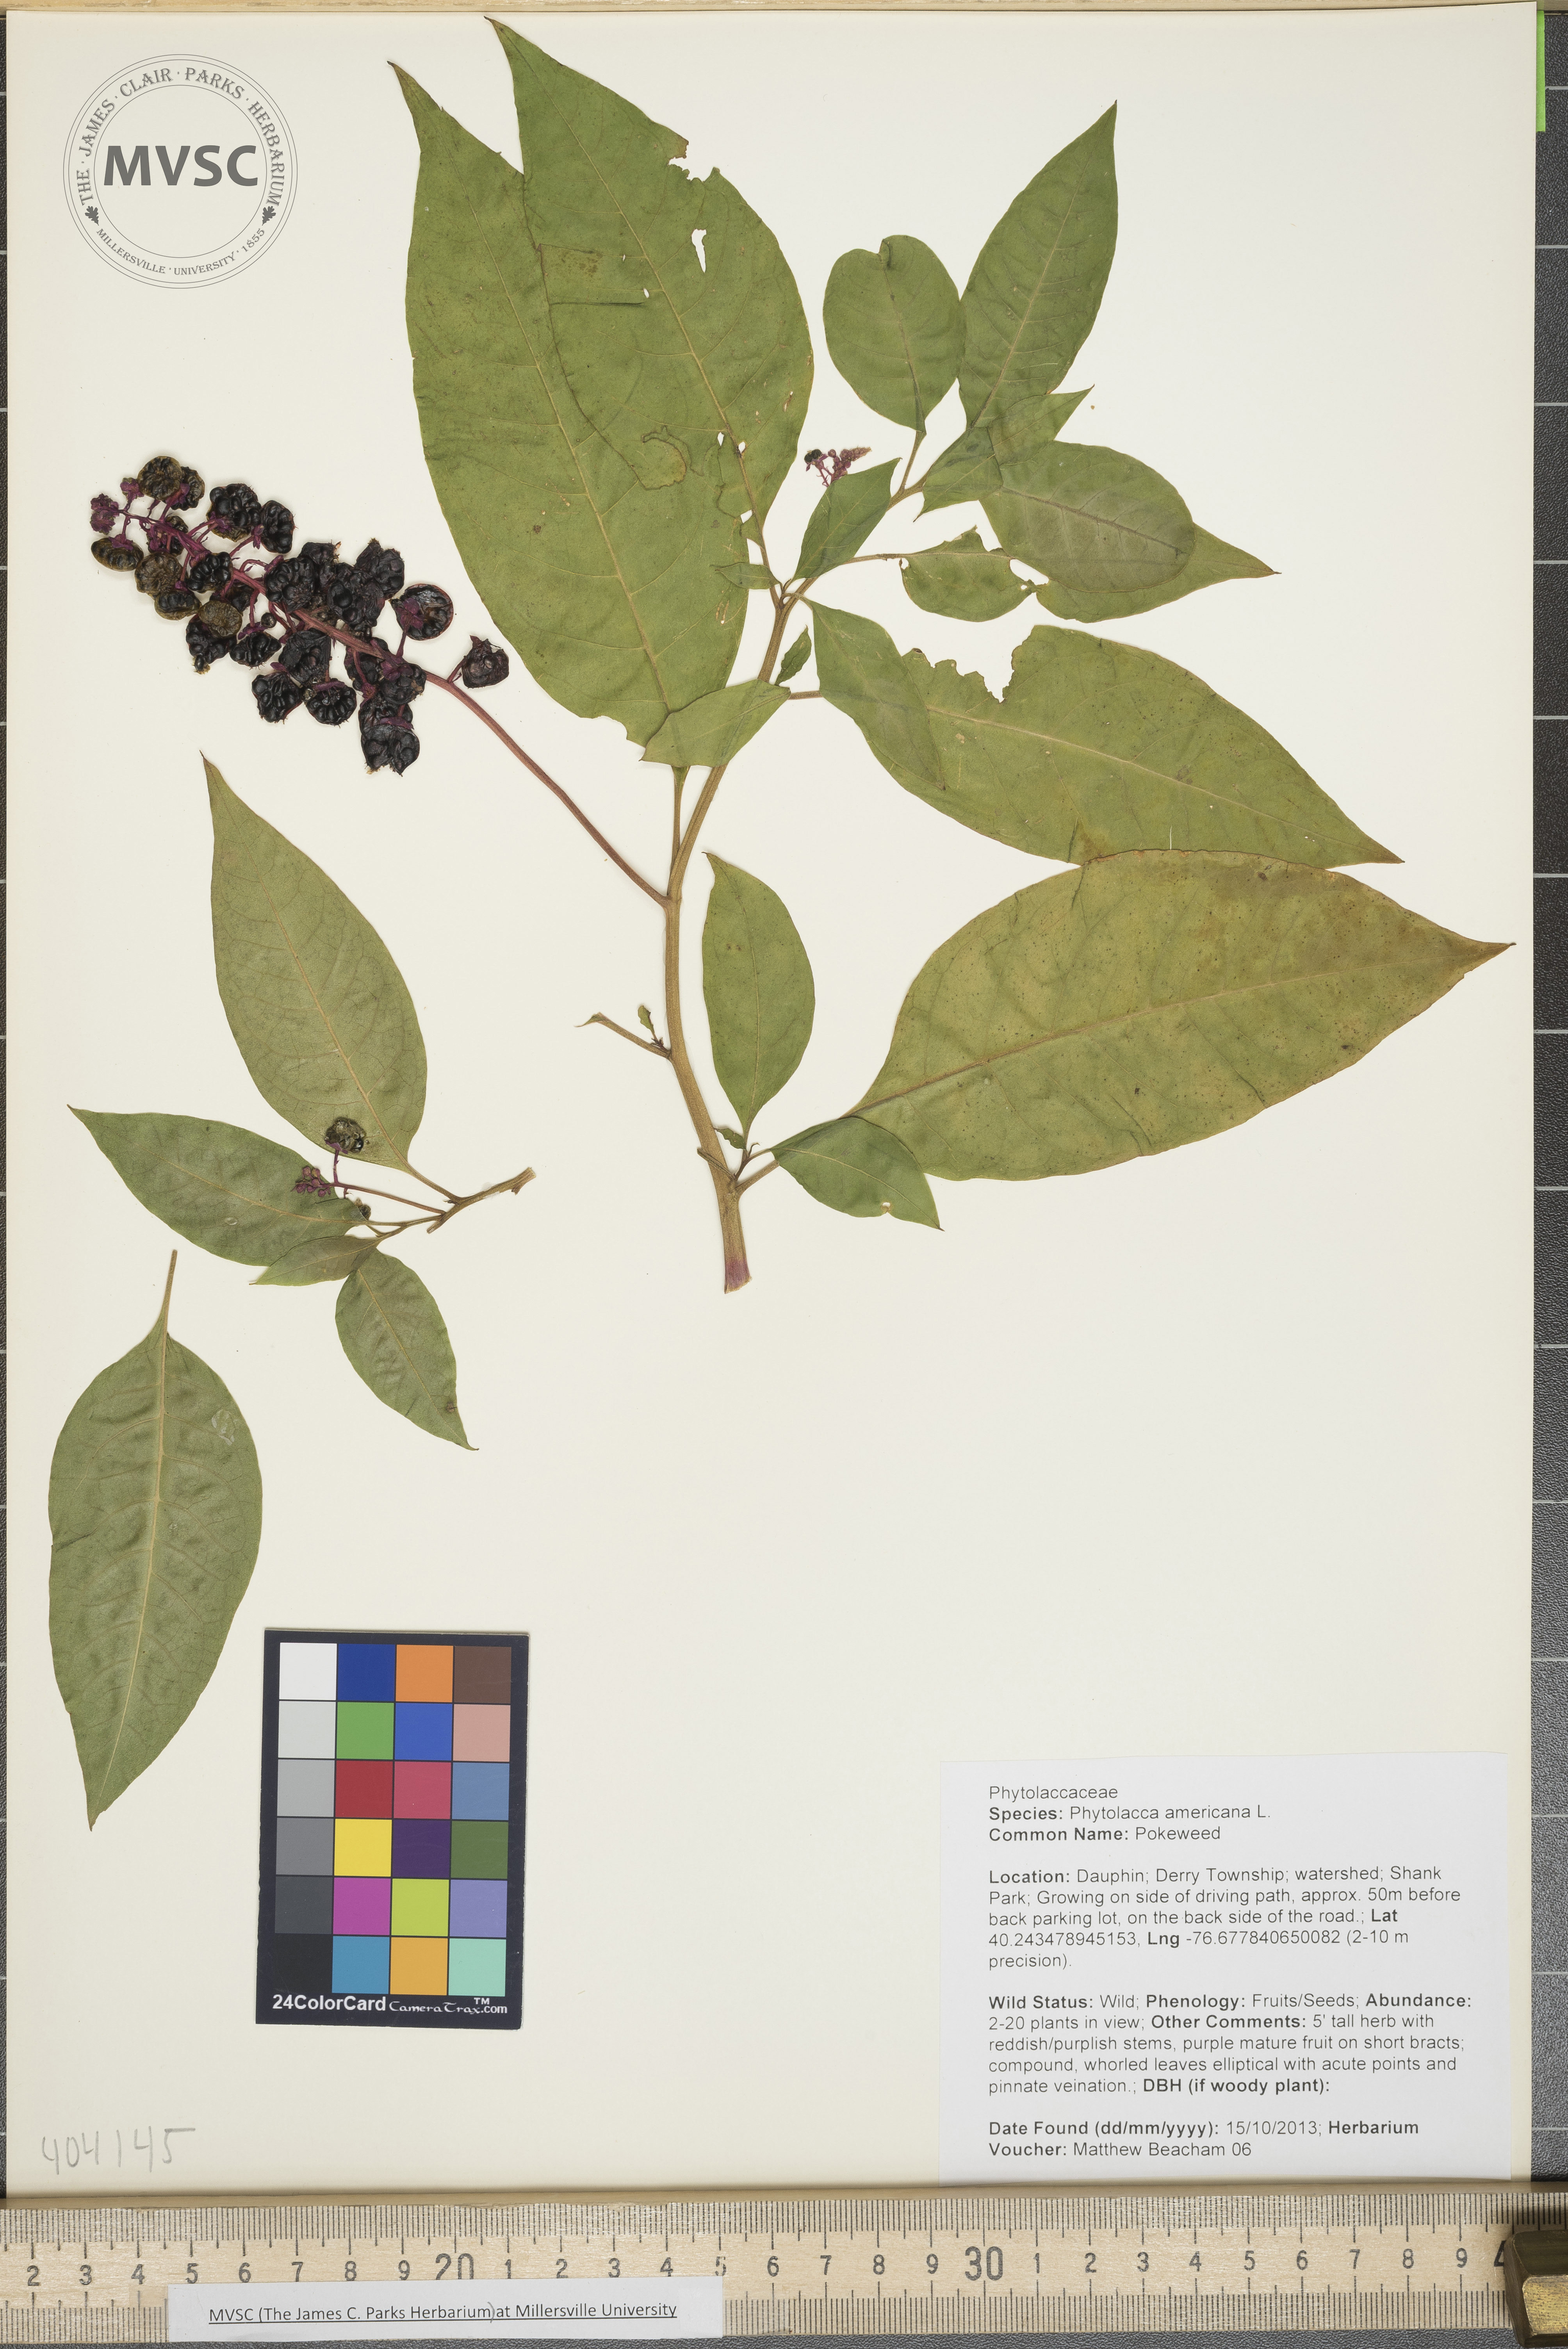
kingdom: Plantae
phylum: Tracheophyta
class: Magnoliopsida
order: Caryophyllales
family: Phytolaccaceae
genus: Phytolacca
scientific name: Phytolacca americana
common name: Pokeweed
